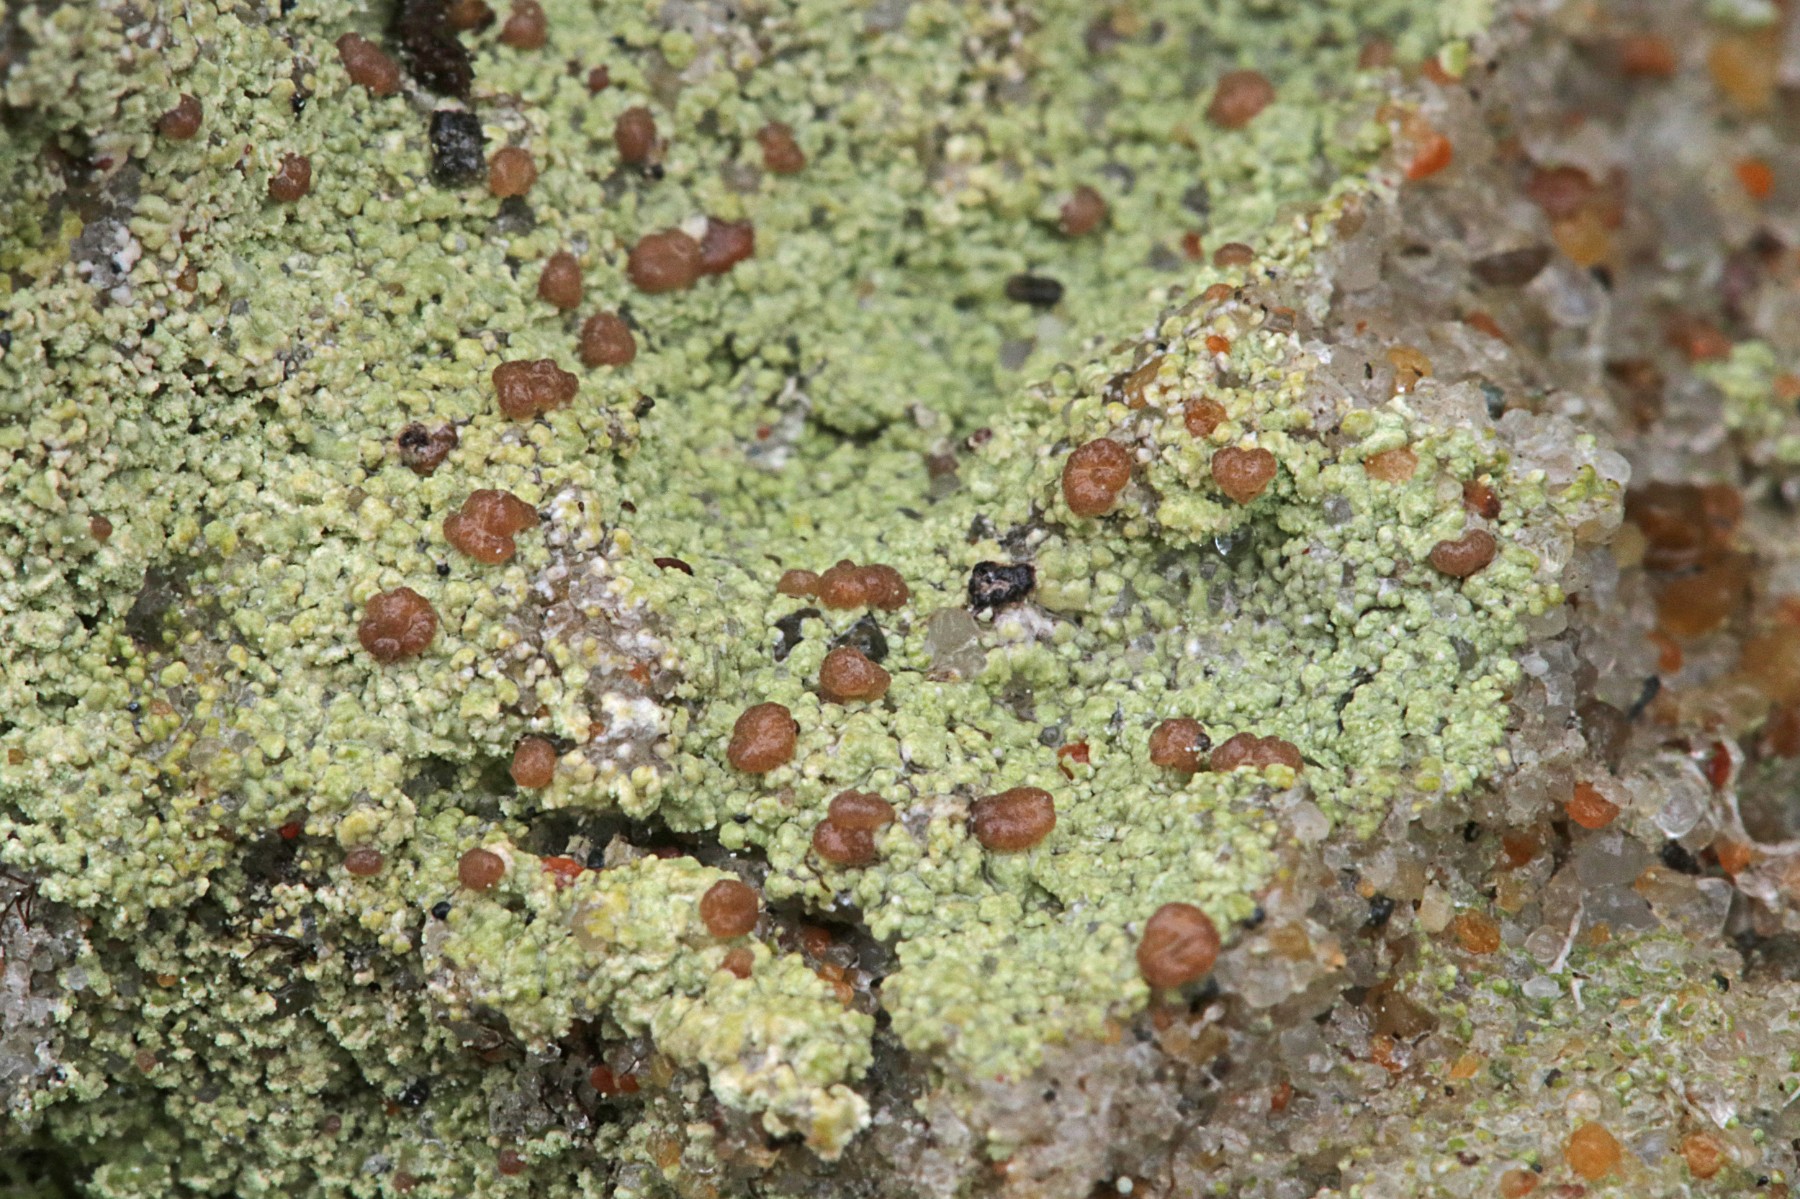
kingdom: Fungi
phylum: Ascomycota
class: Lecanoromycetes
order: Baeomycetales
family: Baeomycetaceae
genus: Baeomyces
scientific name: Baeomyces rufus
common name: rødbrun svampelav
